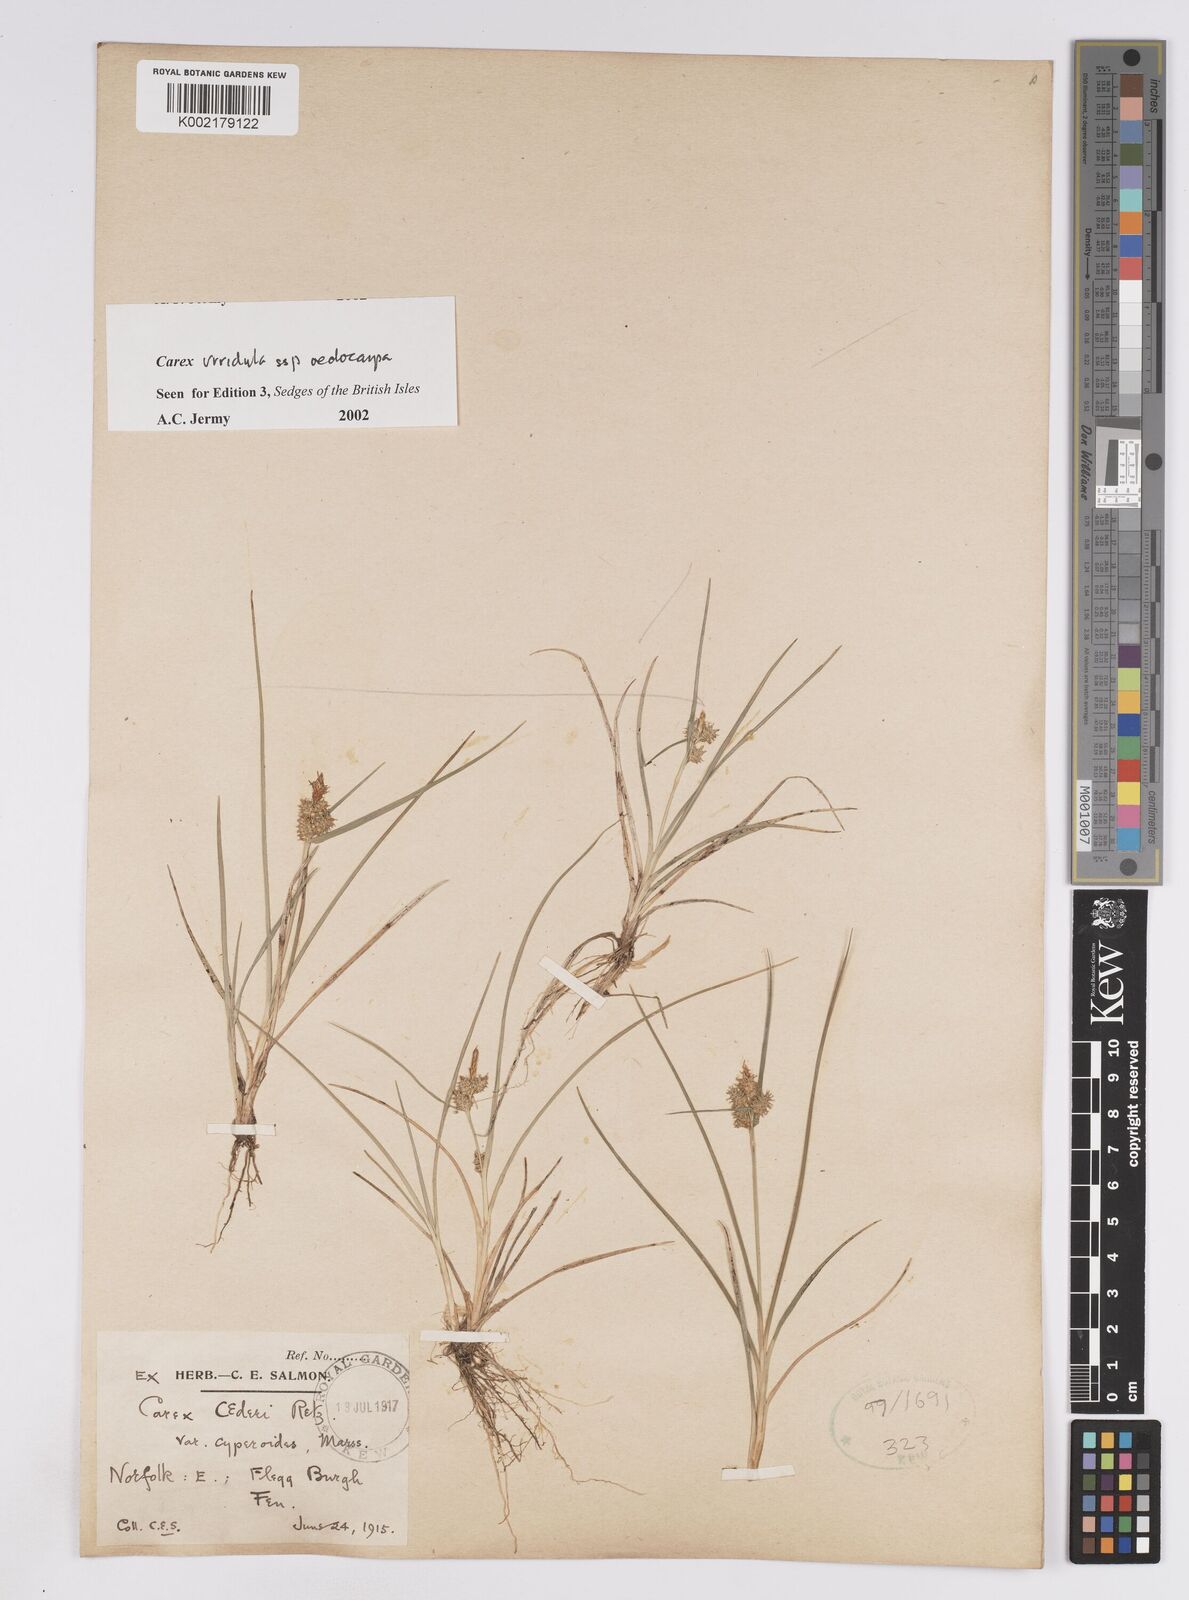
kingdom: Plantae
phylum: Tracheophyta
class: Liliopsida
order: Poales
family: Cyperaceae
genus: Carex
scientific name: Carex demissa
